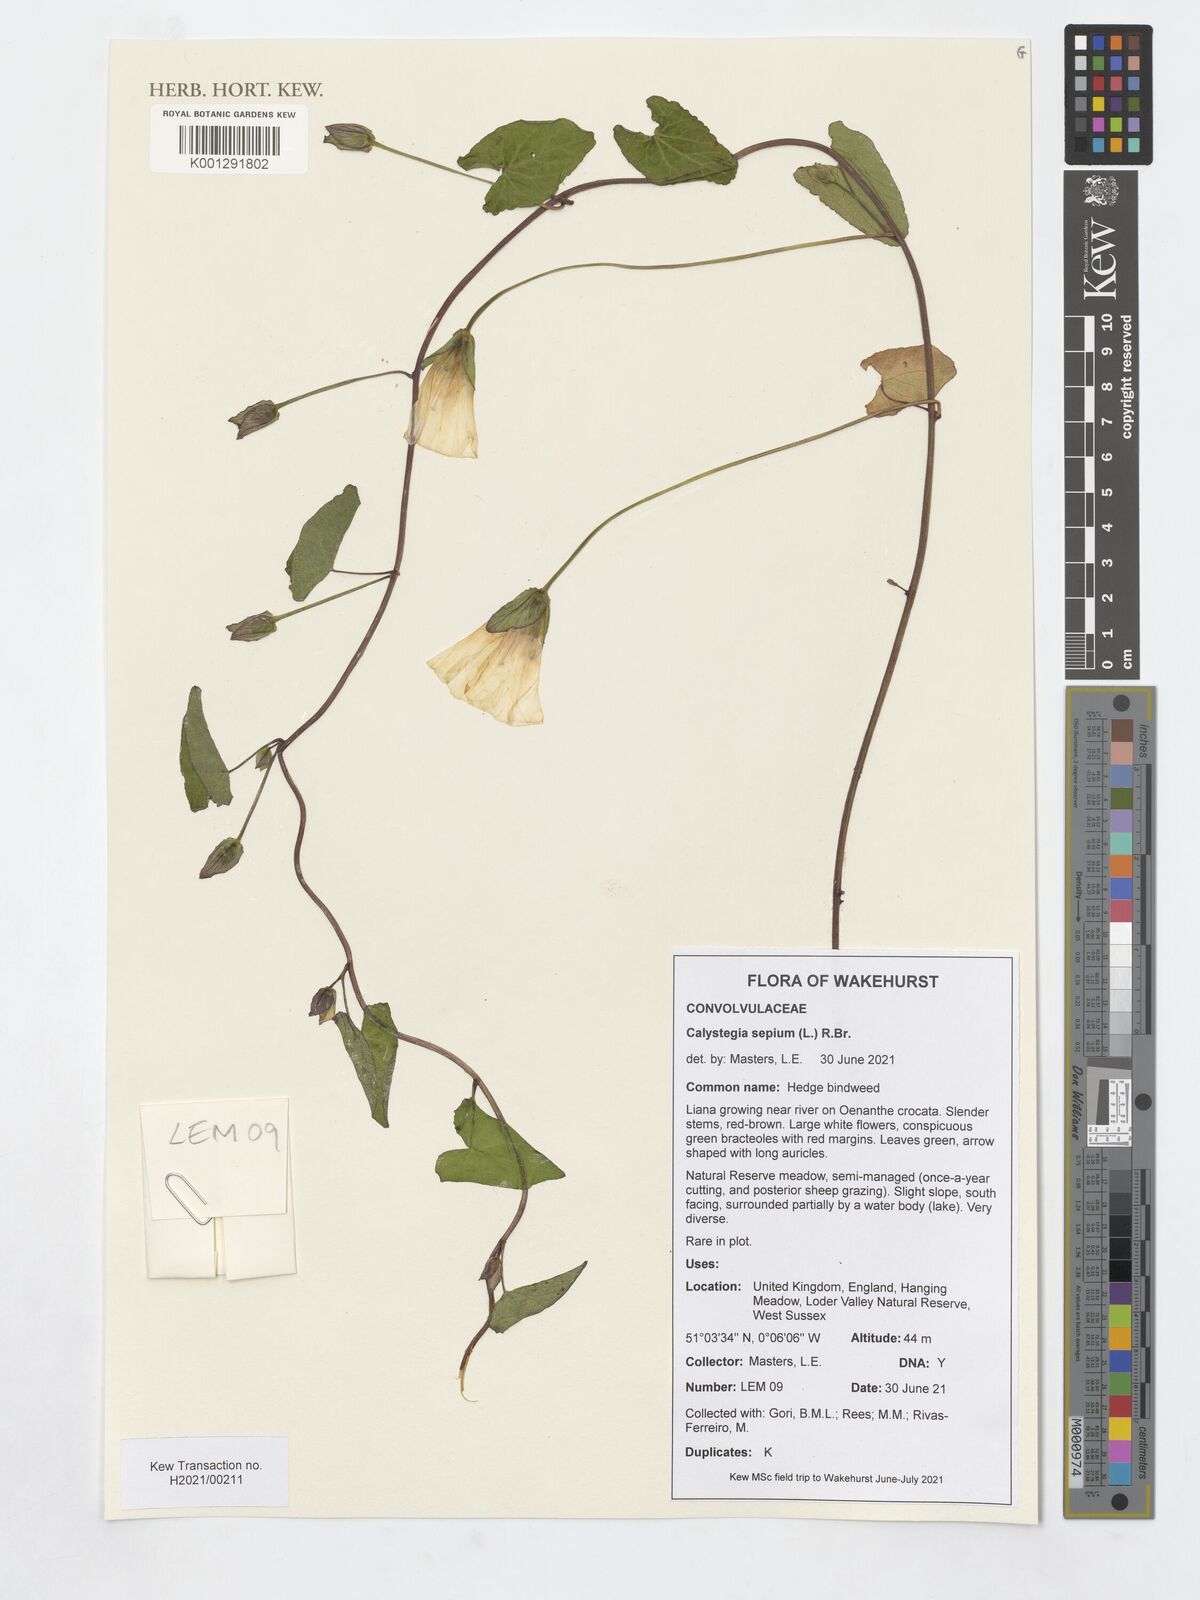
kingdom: Plantae
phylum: Tracheophyta
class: Magnoliopsida
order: Solanales
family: Convolvulaceae
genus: Calystegia
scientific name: Calystegia sepium
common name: Hedge bindweed
